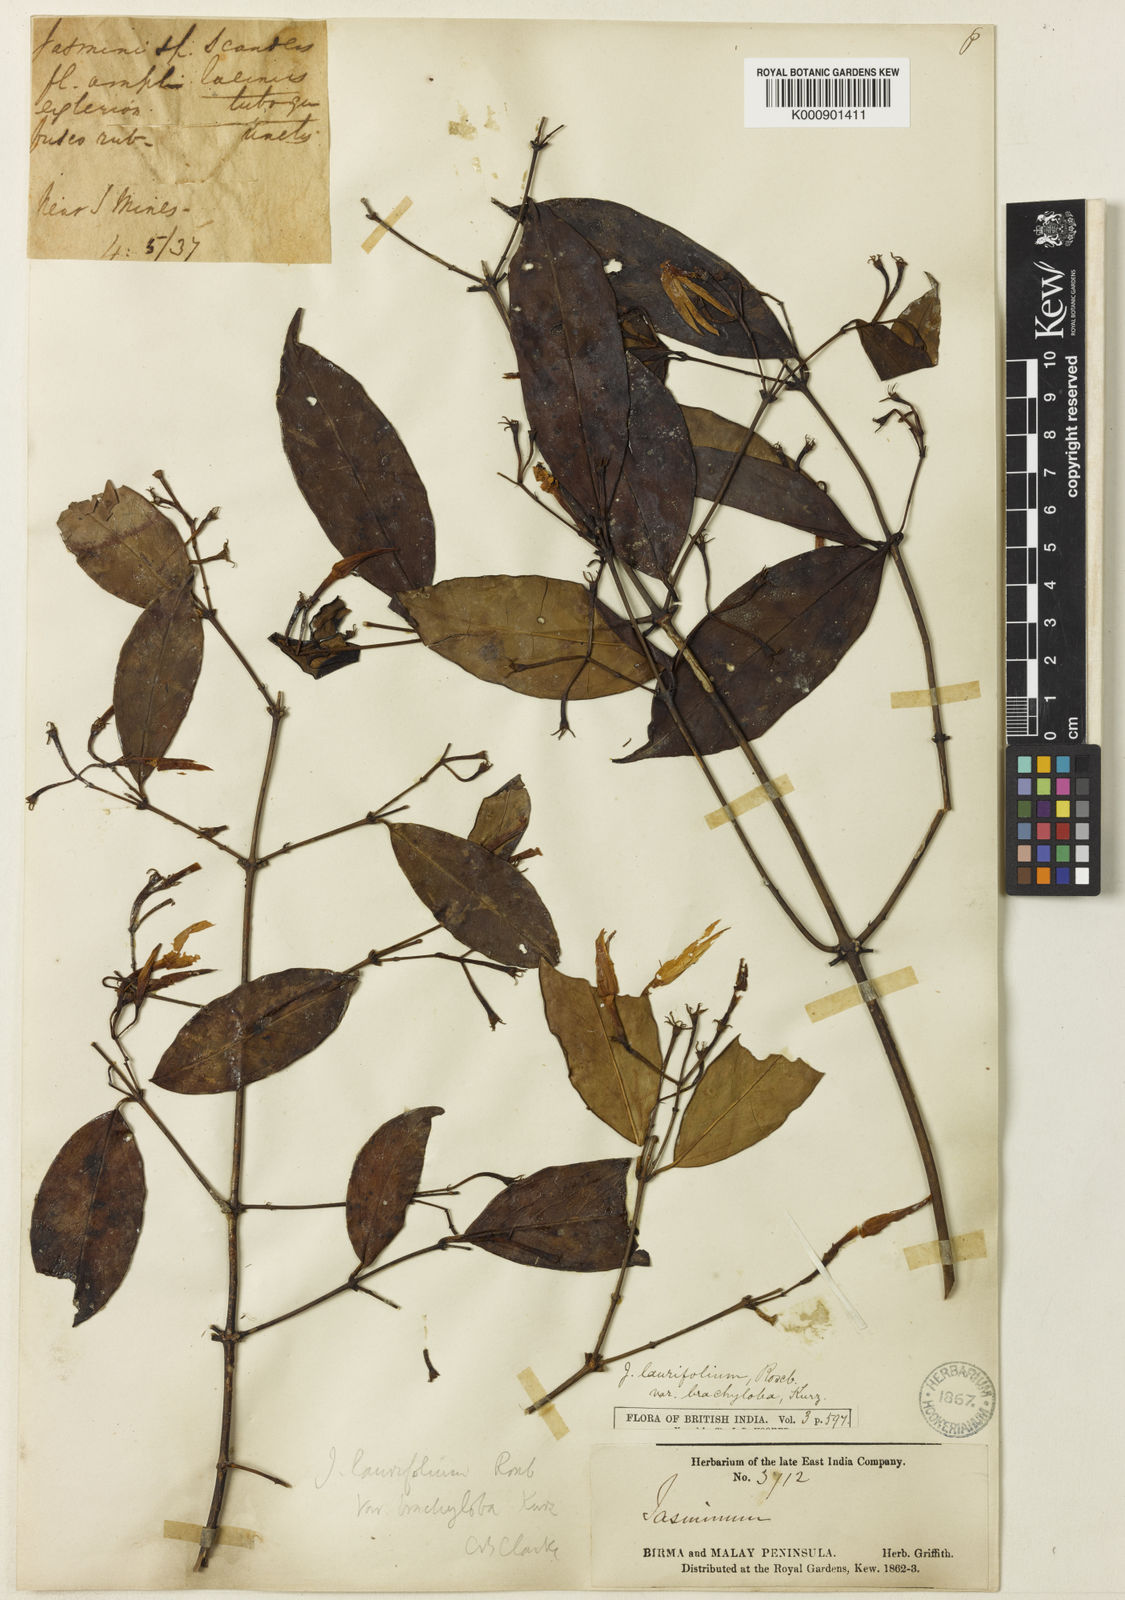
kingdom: Plantae
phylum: Tracheophyta
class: Magnoliopsida
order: Lamiales
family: Oleaceae
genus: Jasminum
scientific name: Jasminum laurifolium
